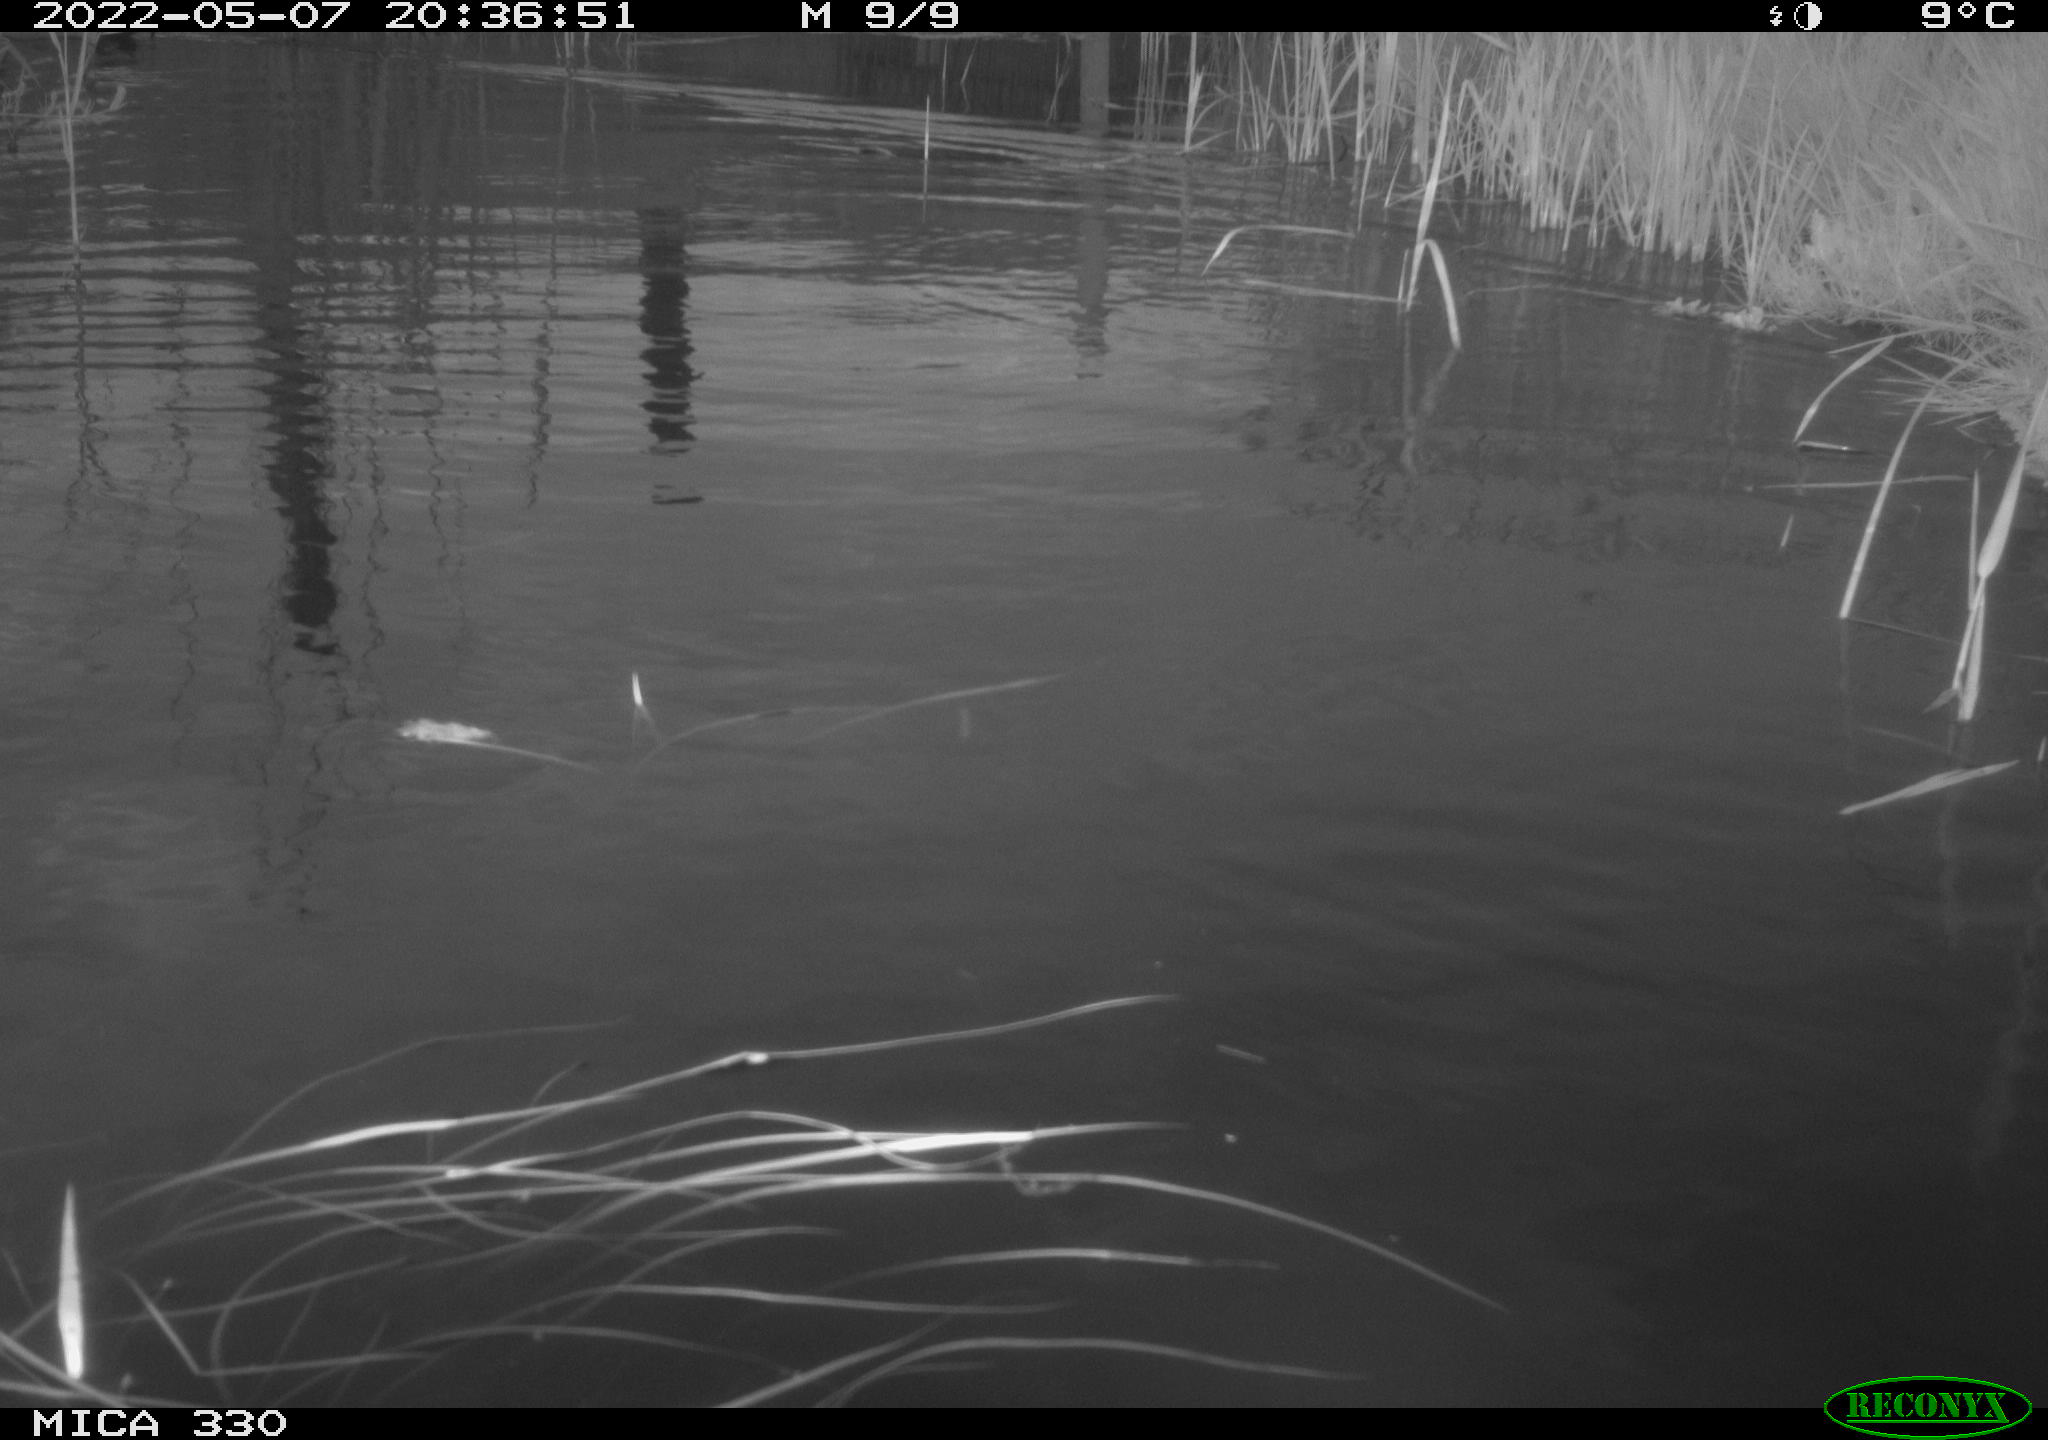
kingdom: Animalia
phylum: Chordata
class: Aves
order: Anseriformes
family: Anatidae
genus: Anas
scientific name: Anas platyrhynchos
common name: Mallard
